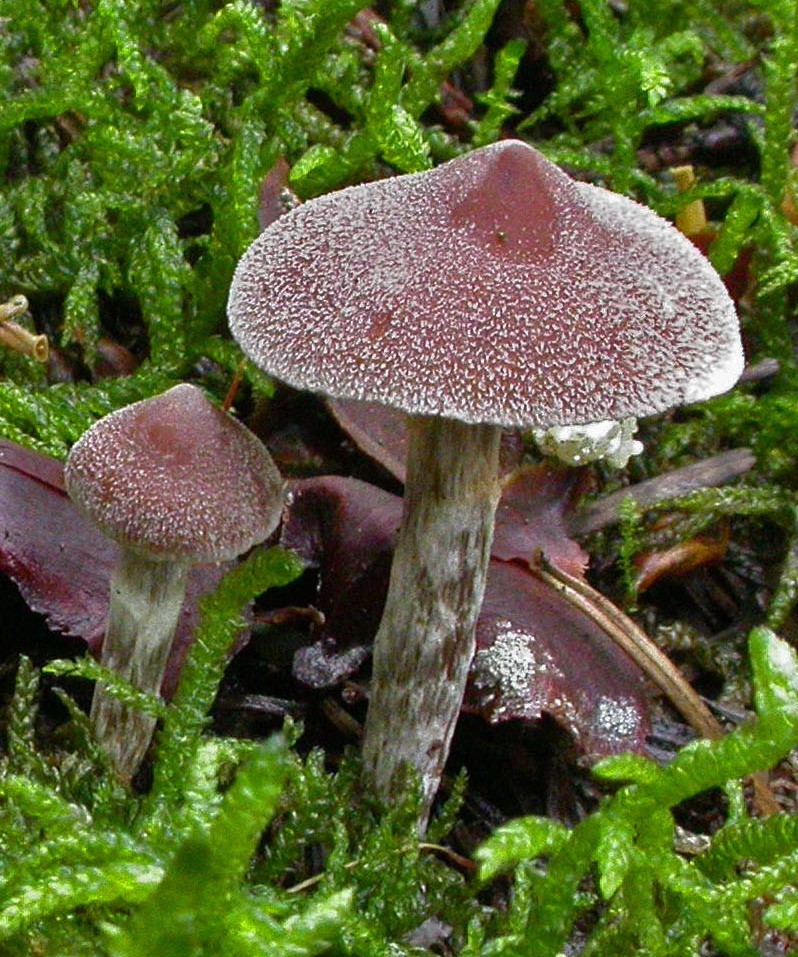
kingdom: Fungi
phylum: Basidiomycota
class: Agaricomycetes
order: Agaricales
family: Cortinariaceae
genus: Cortinarius
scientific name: Cortinarius
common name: pelargonie-slørhat
